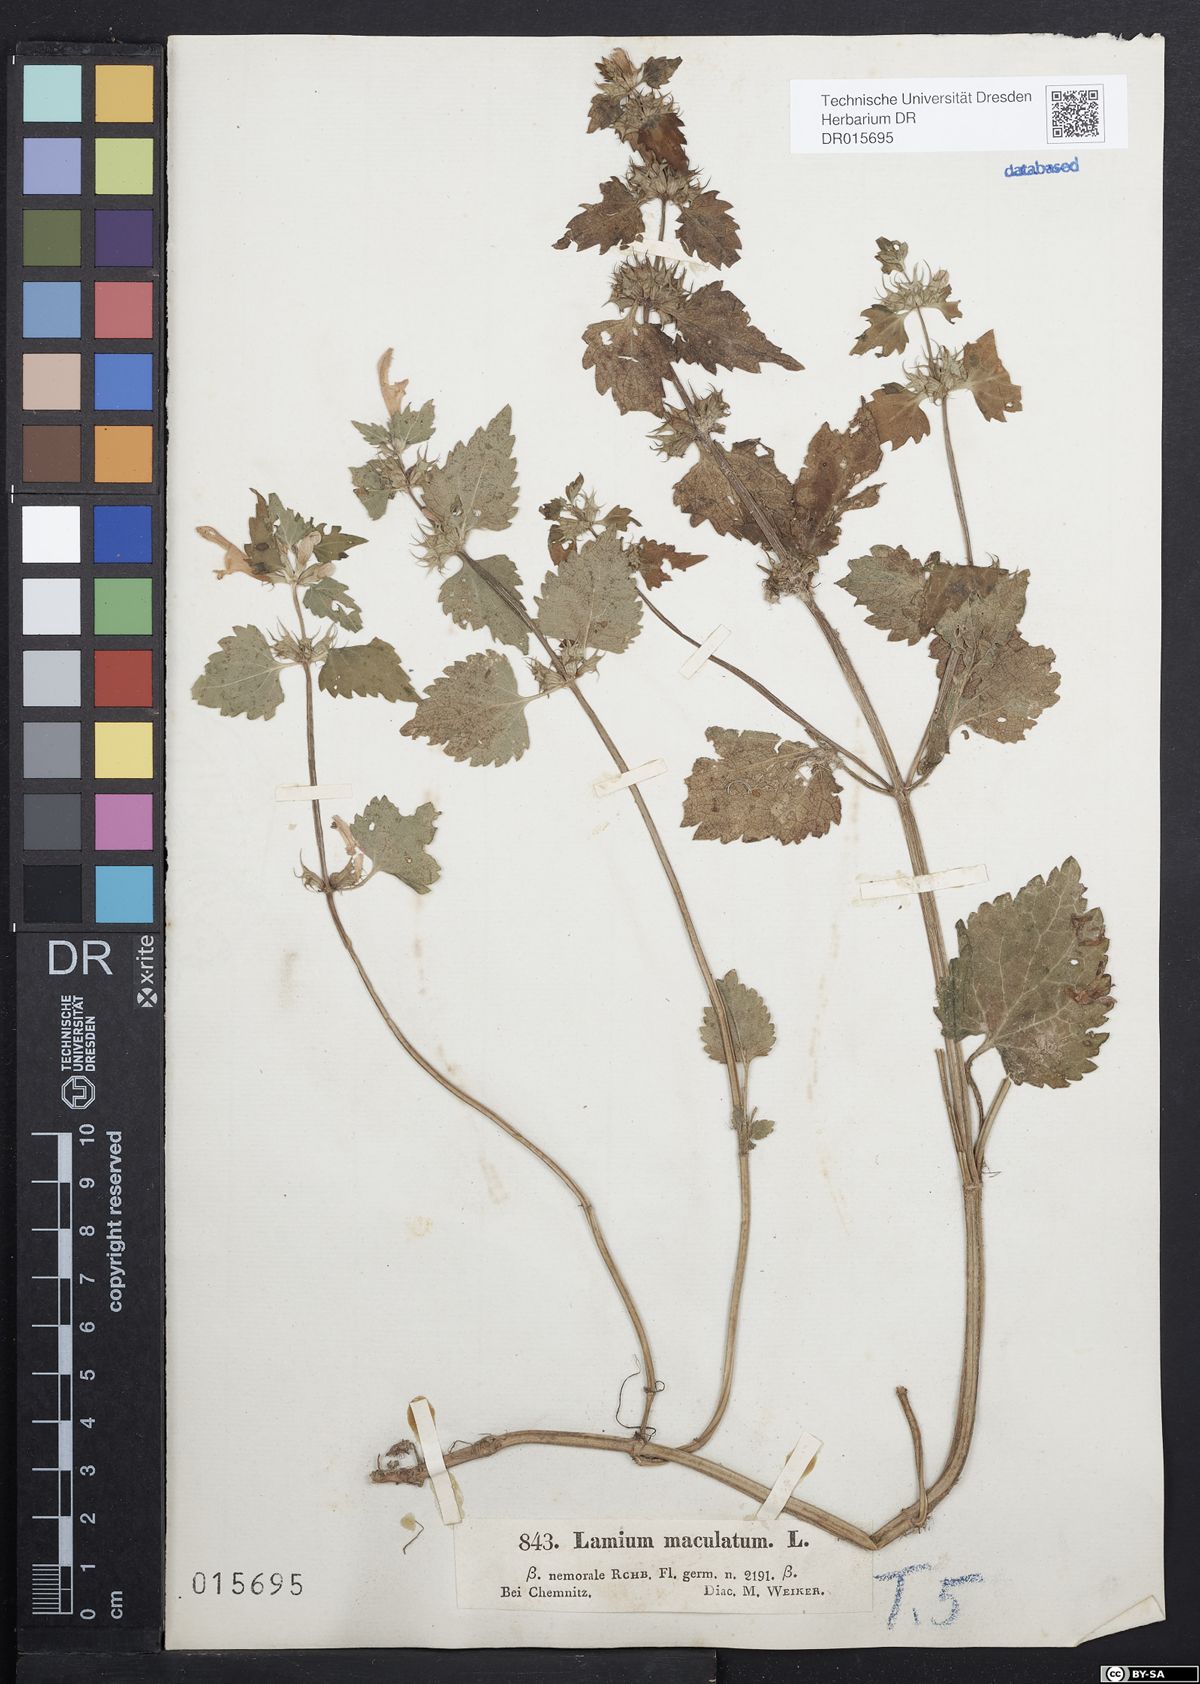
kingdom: Plantae
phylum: Tracheophyta
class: Magnoliopsida
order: Lamiales
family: Lamiaceae
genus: Lamium
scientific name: Lamium maculatum
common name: Spotted dead-nettle
